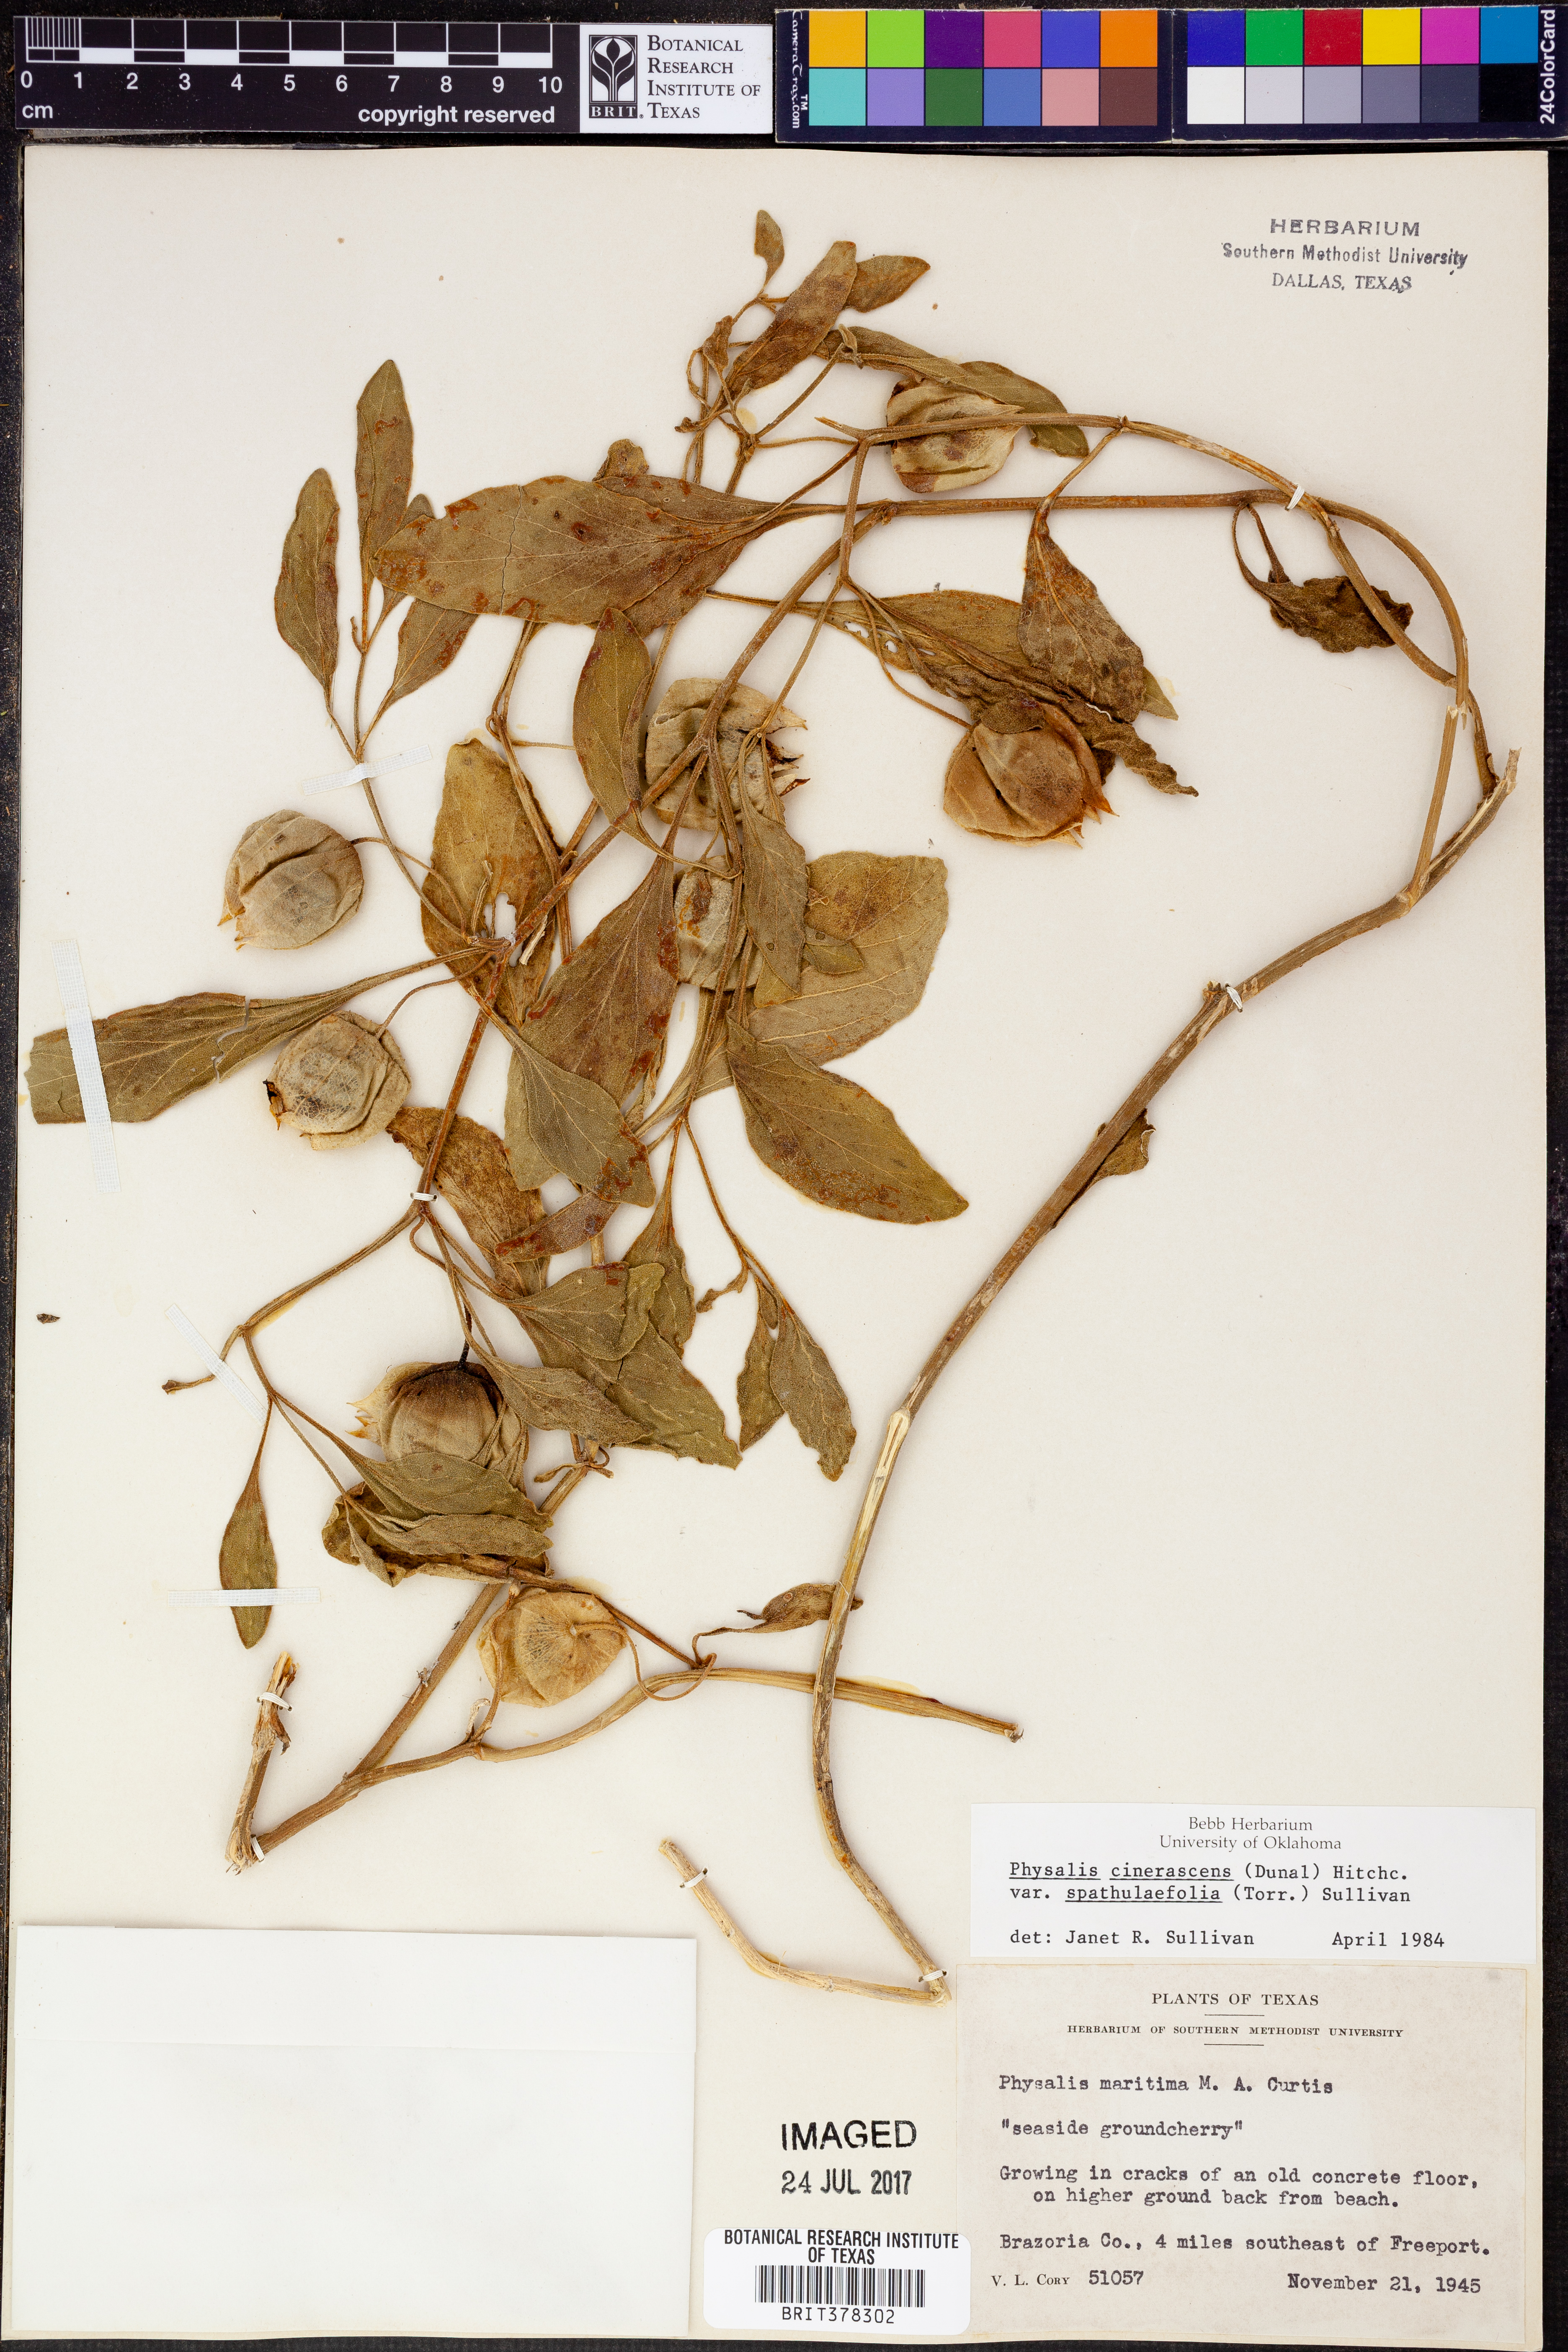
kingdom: Plantae
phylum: Tracheophyta
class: Magnoliopsida
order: Solanales
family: Solanaceae
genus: Physalis
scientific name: Physalis cinerascens
